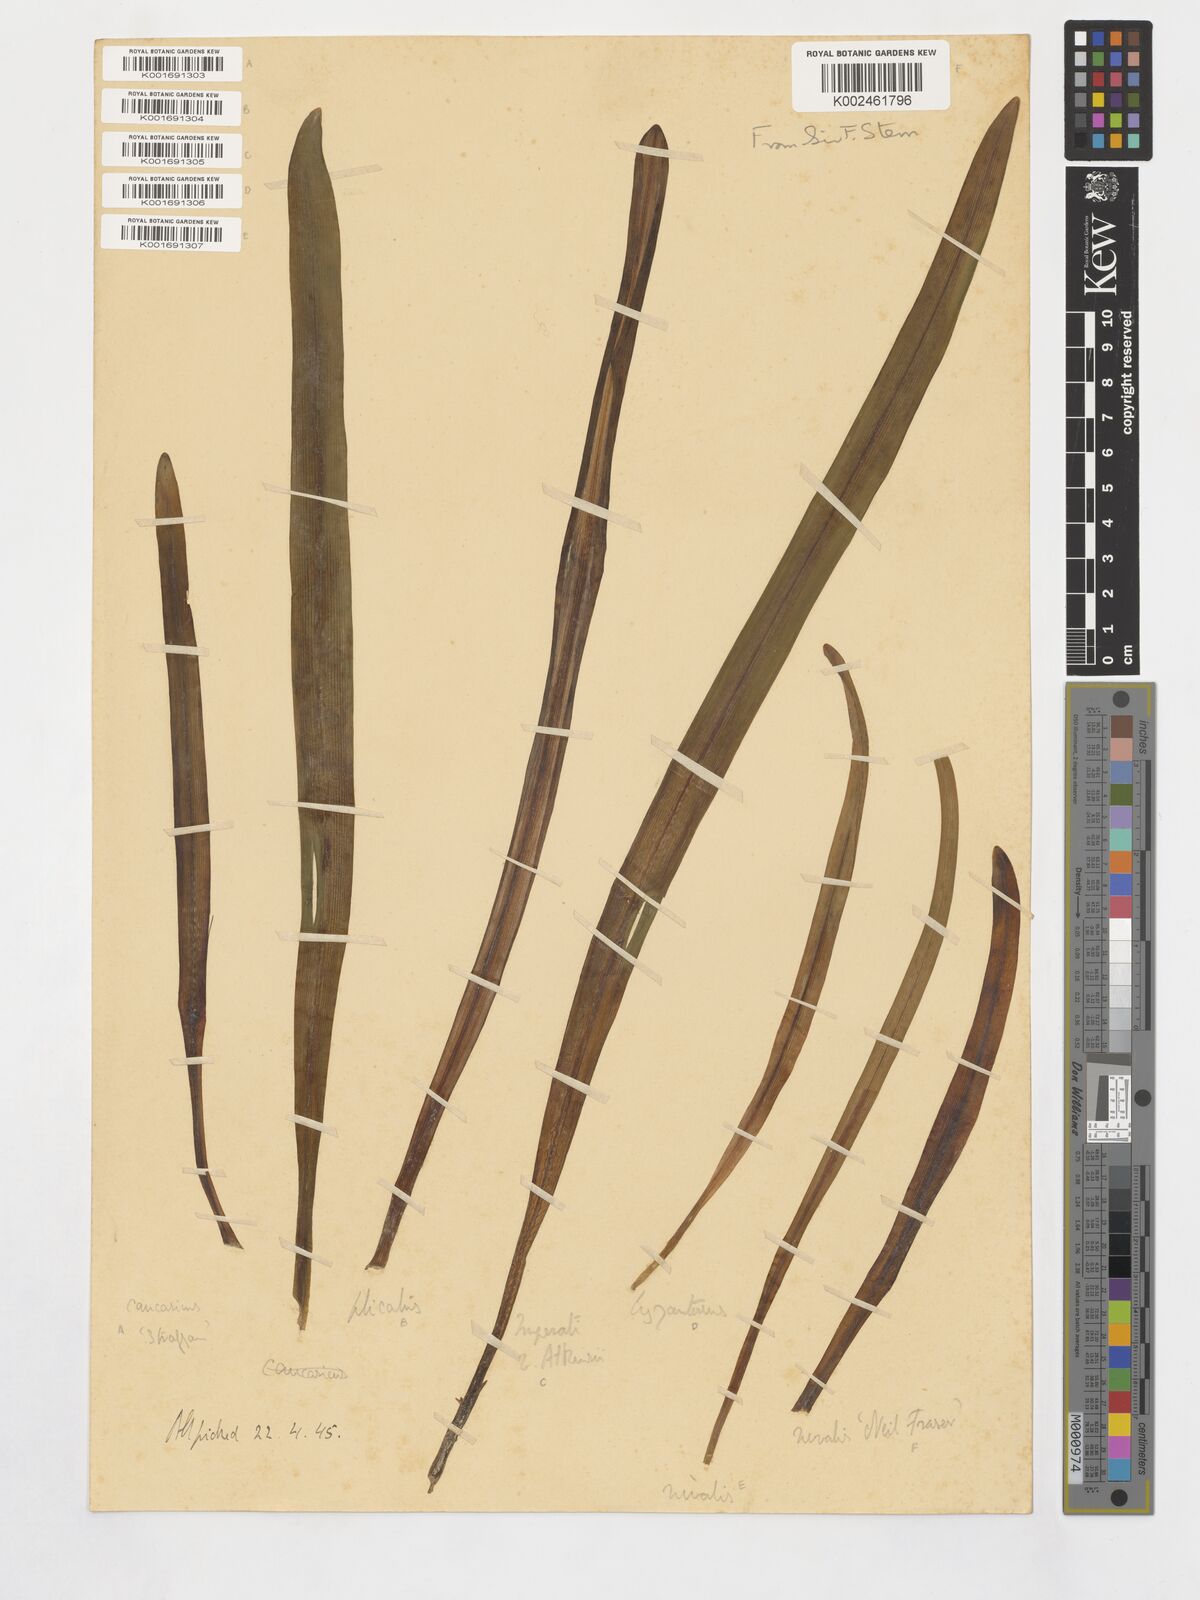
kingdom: Plantae
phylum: Tracheophyta
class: Liliopsida
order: Asparagales
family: Amaryllidaceae
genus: Galanthus
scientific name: Galanthus plicatus
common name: Pleated snowdrop
